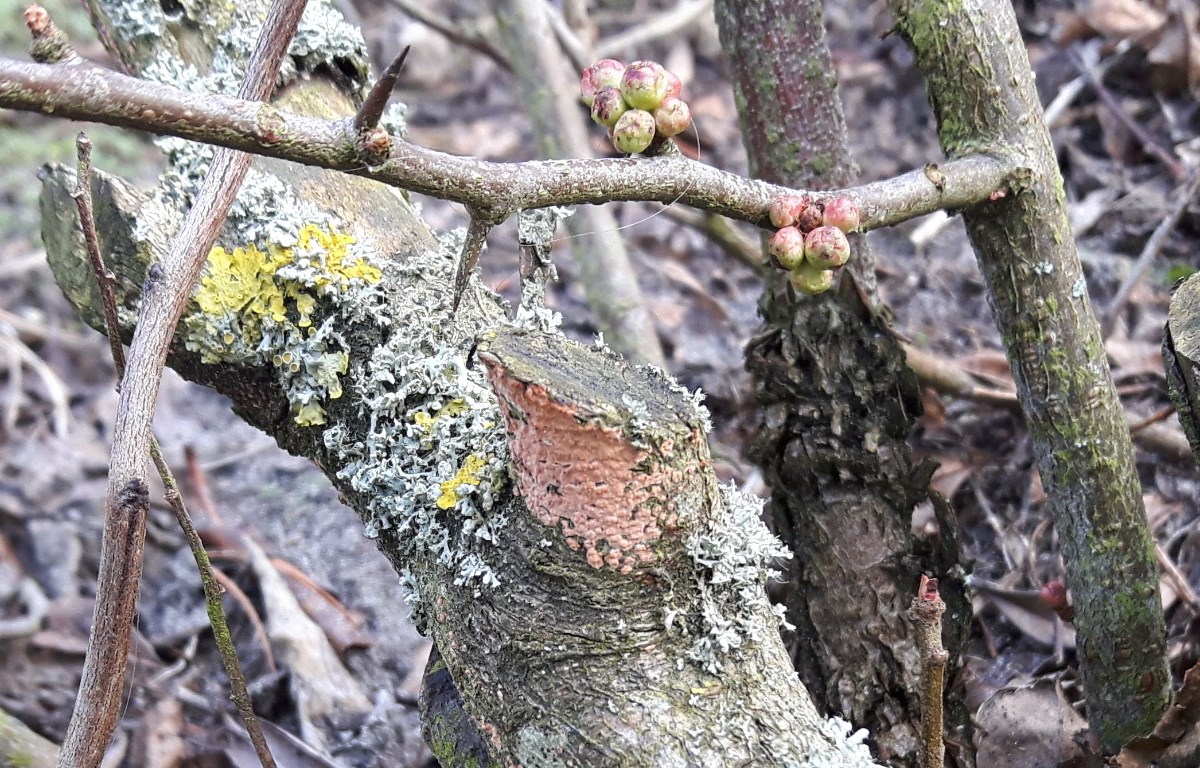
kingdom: Fungi
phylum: Basidiomycota
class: Agaricomycetes
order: Russulales
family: Peniophoraceae
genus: Peniophora
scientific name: Peniophora incarnata
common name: laksefarvet voksskind
